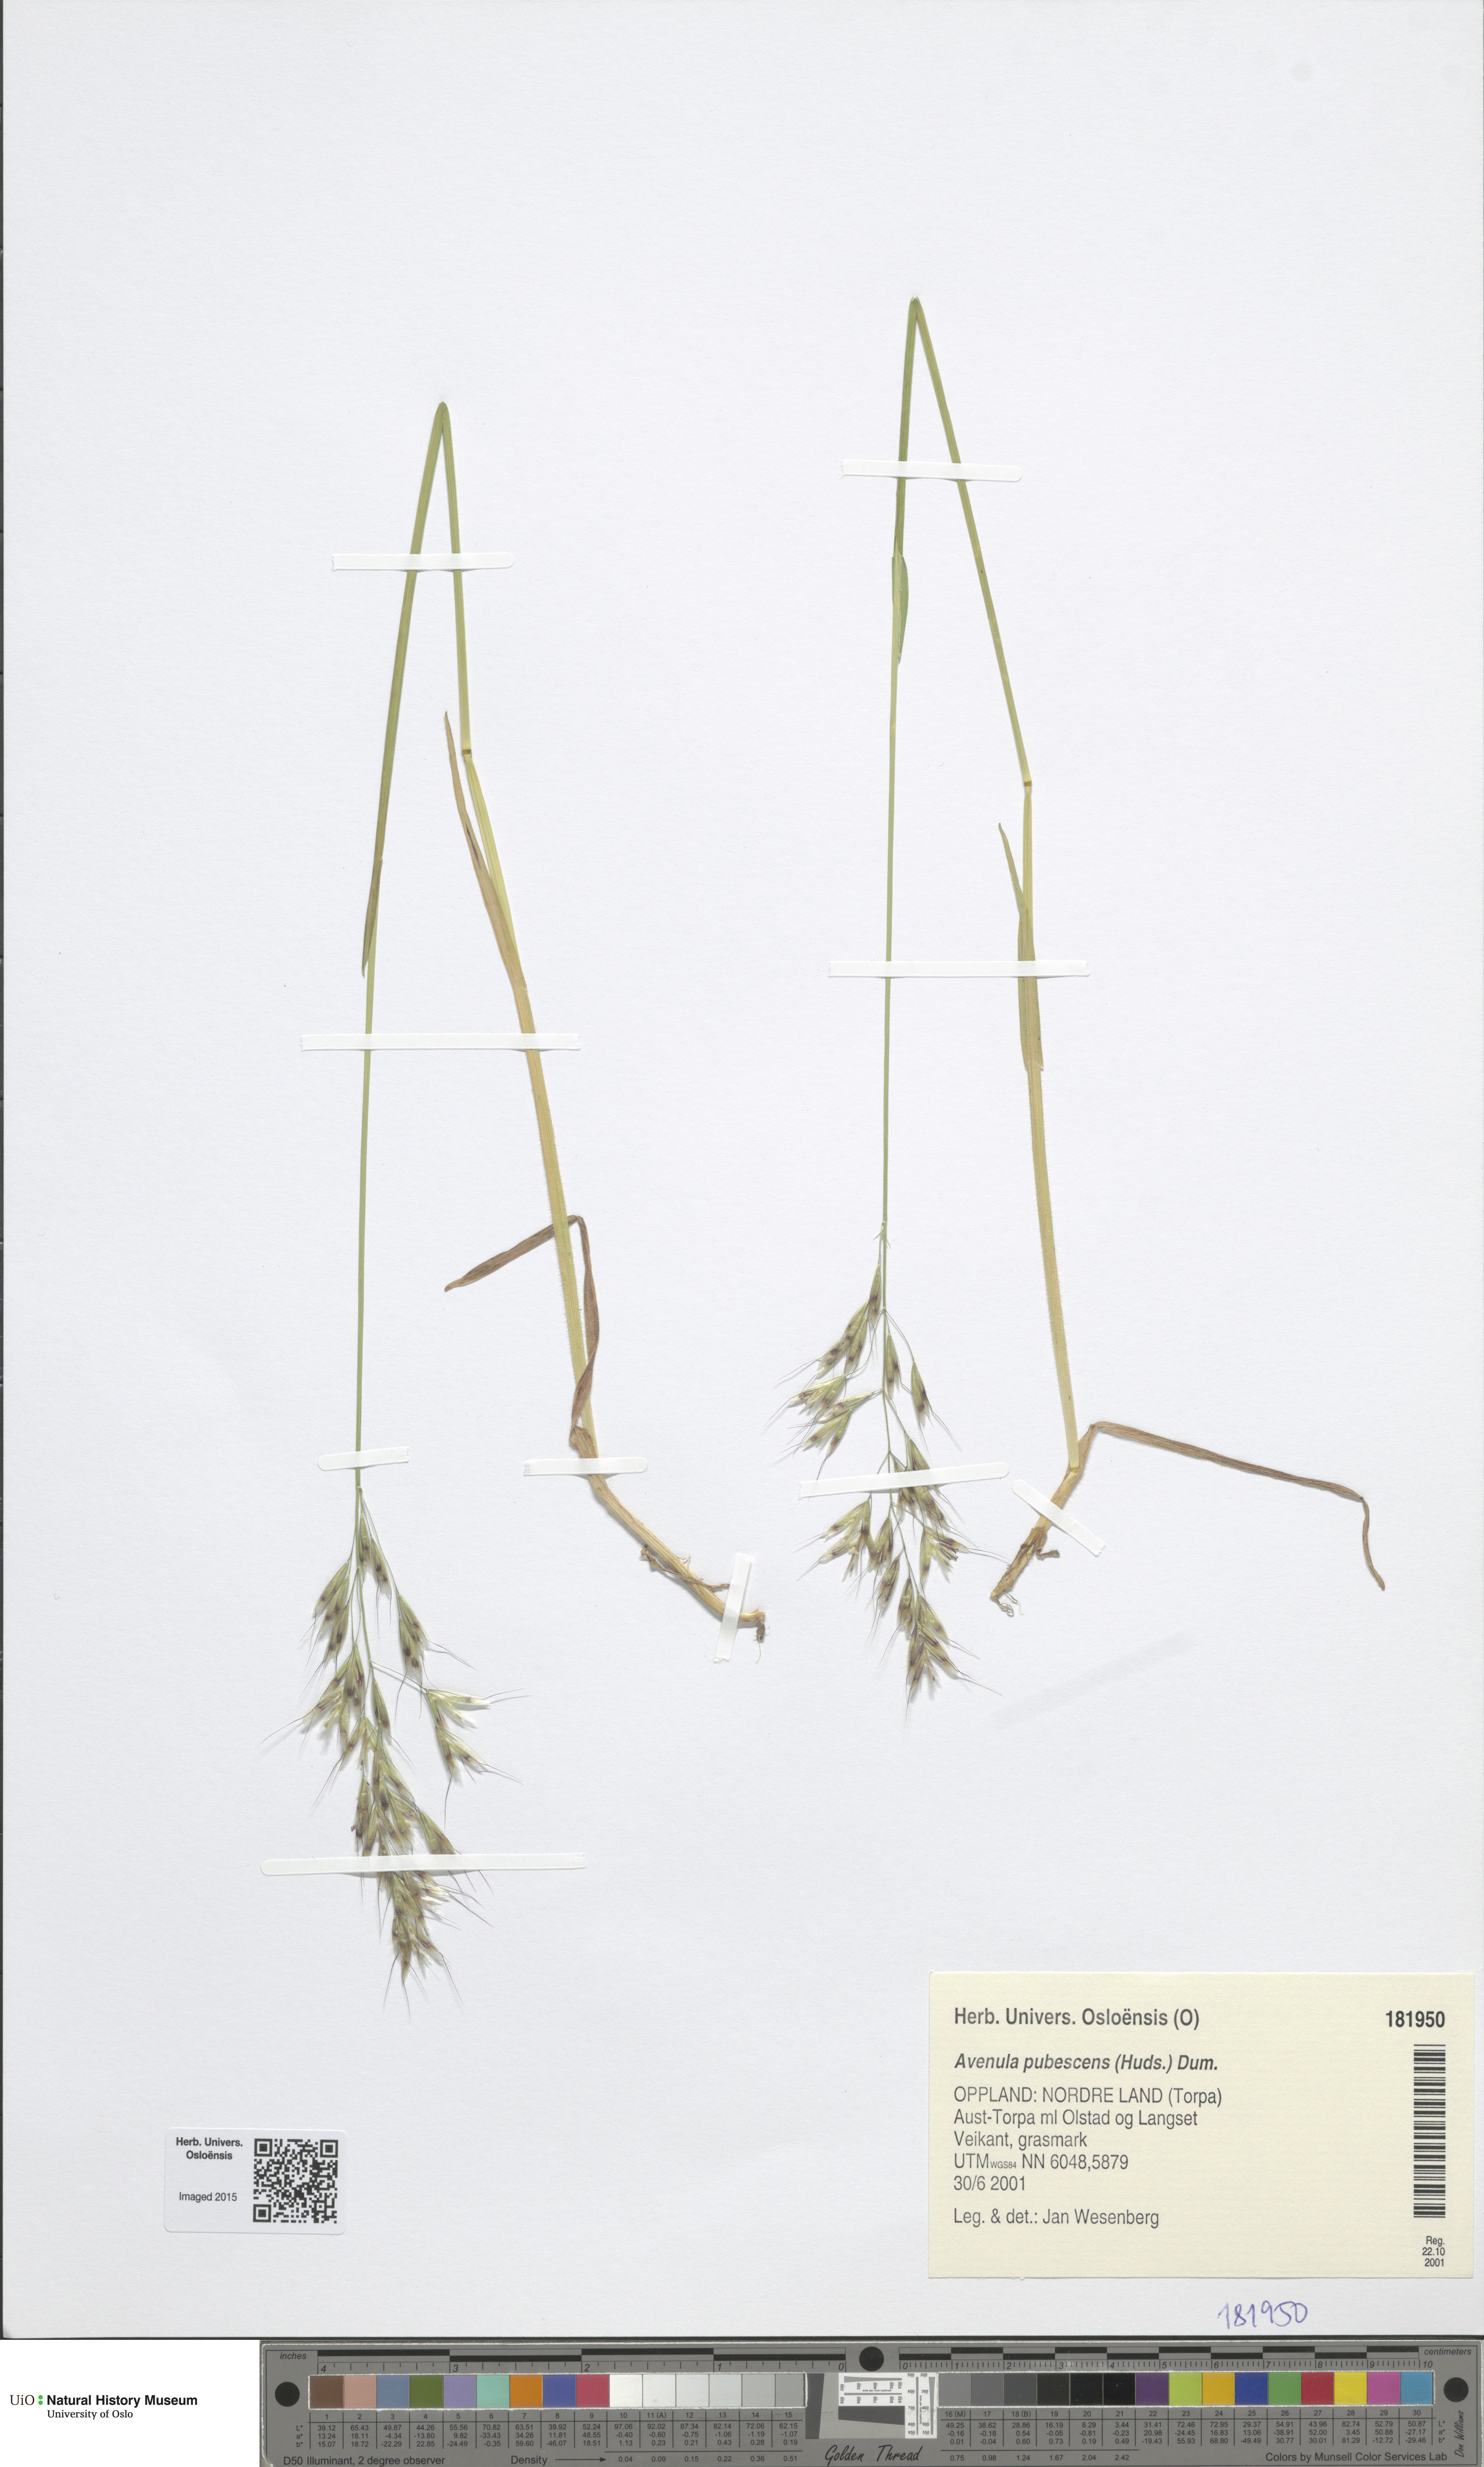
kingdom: Plantae
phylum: Tracheophyta
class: Liliopsida
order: Poales
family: Poaceae
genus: Avenula
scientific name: Avenula pubescens
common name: Downy alpine oatgrass
